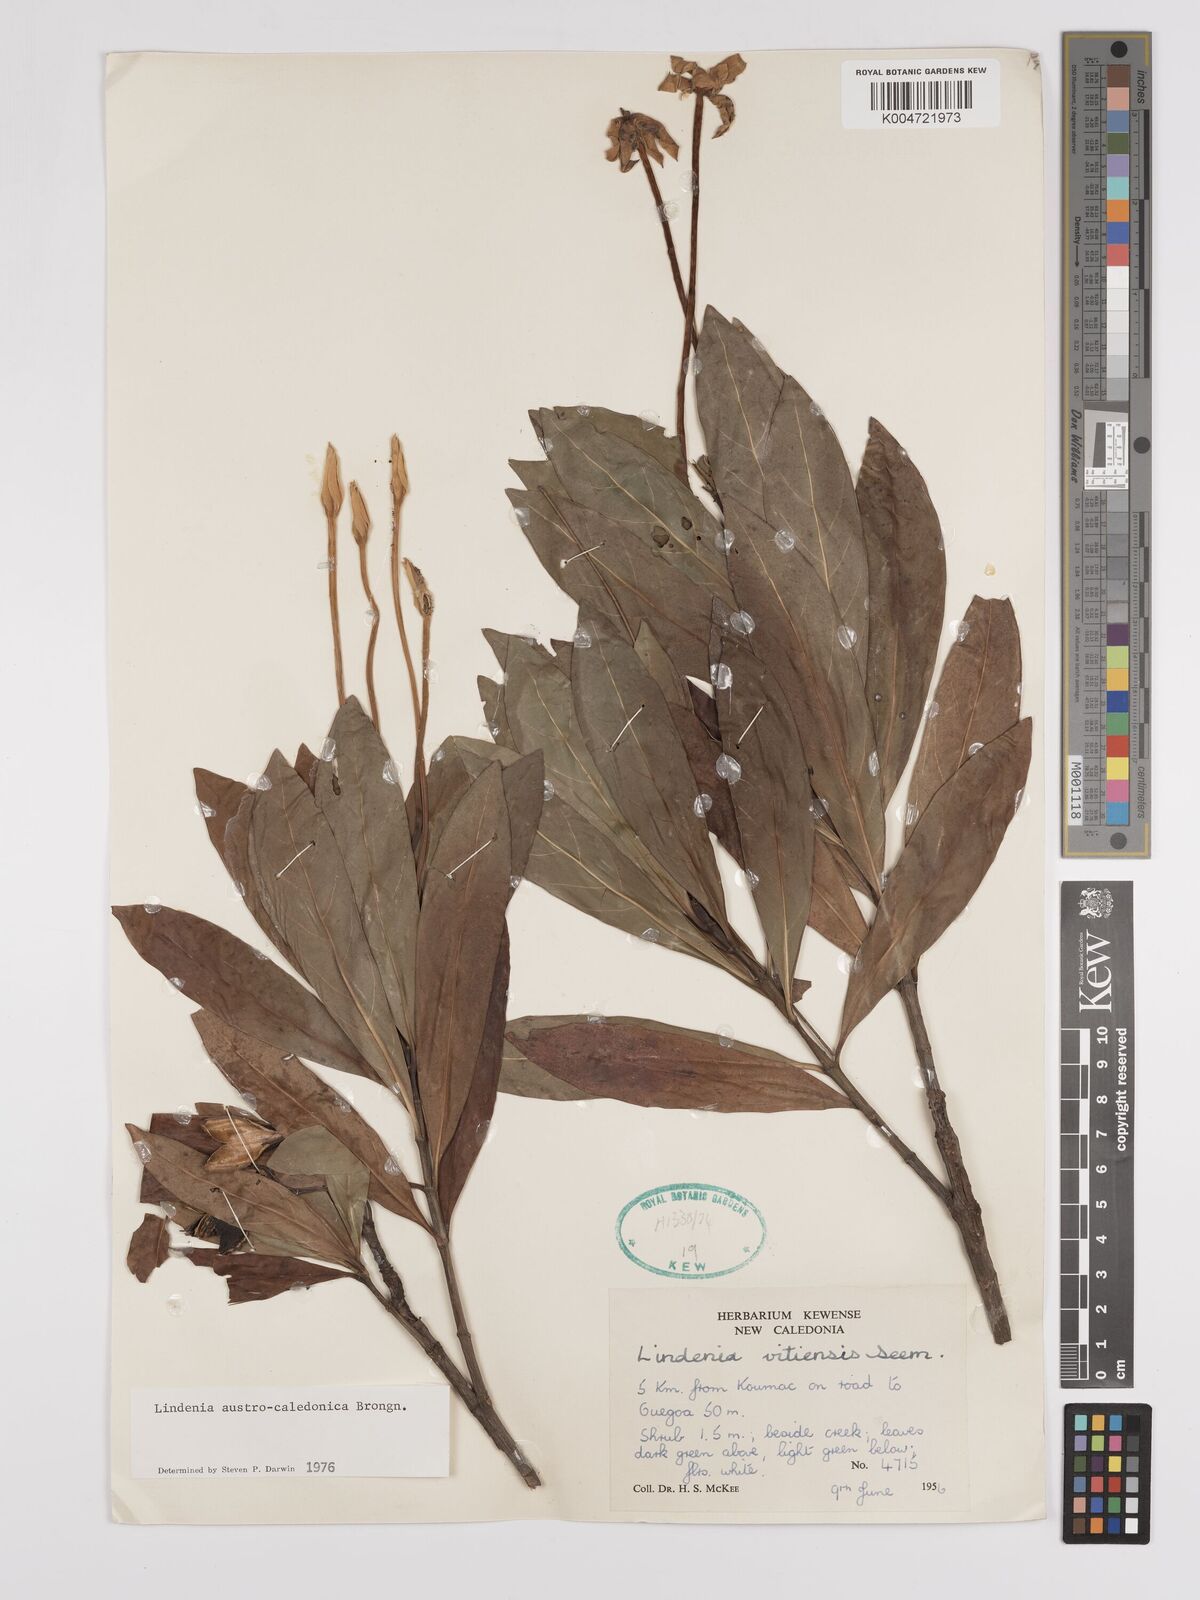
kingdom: Plantae
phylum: Tracheophyta
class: Magnoliopsida
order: Gentianales
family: Rubiaceae
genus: Augusta
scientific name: Augusta austrocaledonica
